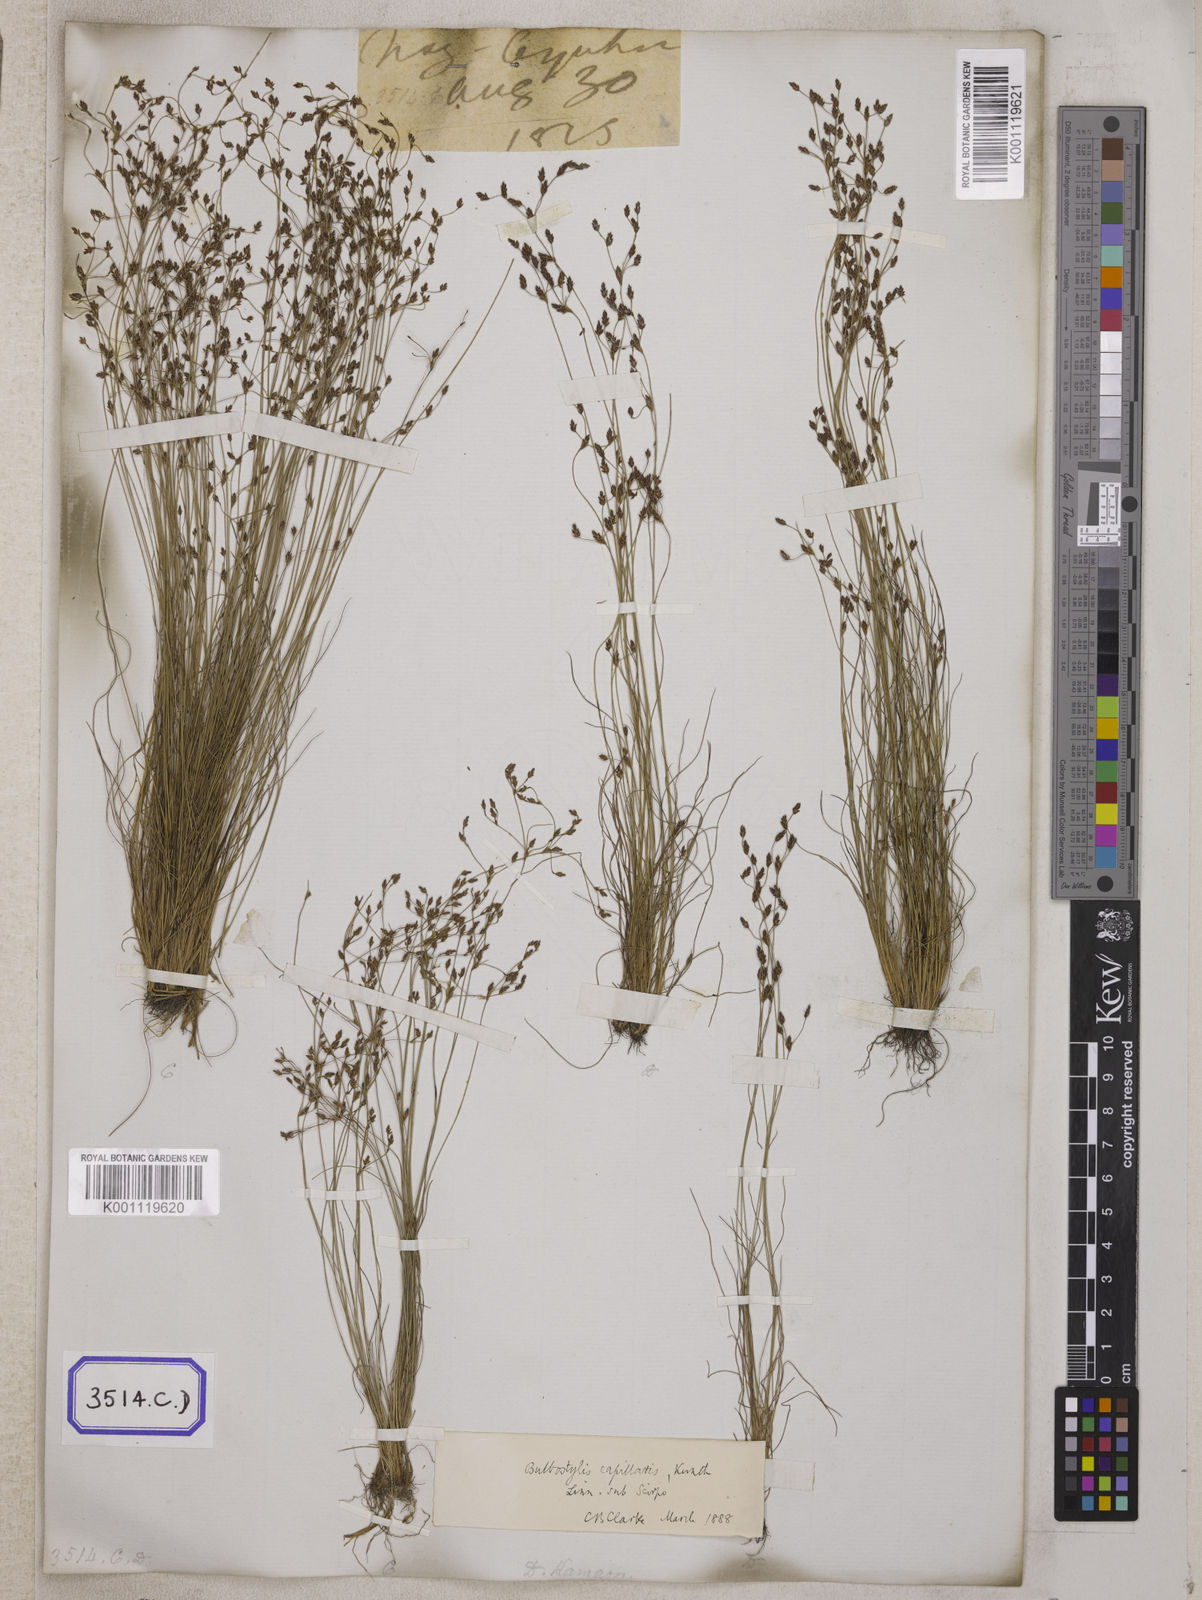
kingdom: Plantae
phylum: Tracheophyta
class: Liliopsida
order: Poales
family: Cyperaceae
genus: Fimbristylis
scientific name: Fimbristylis
